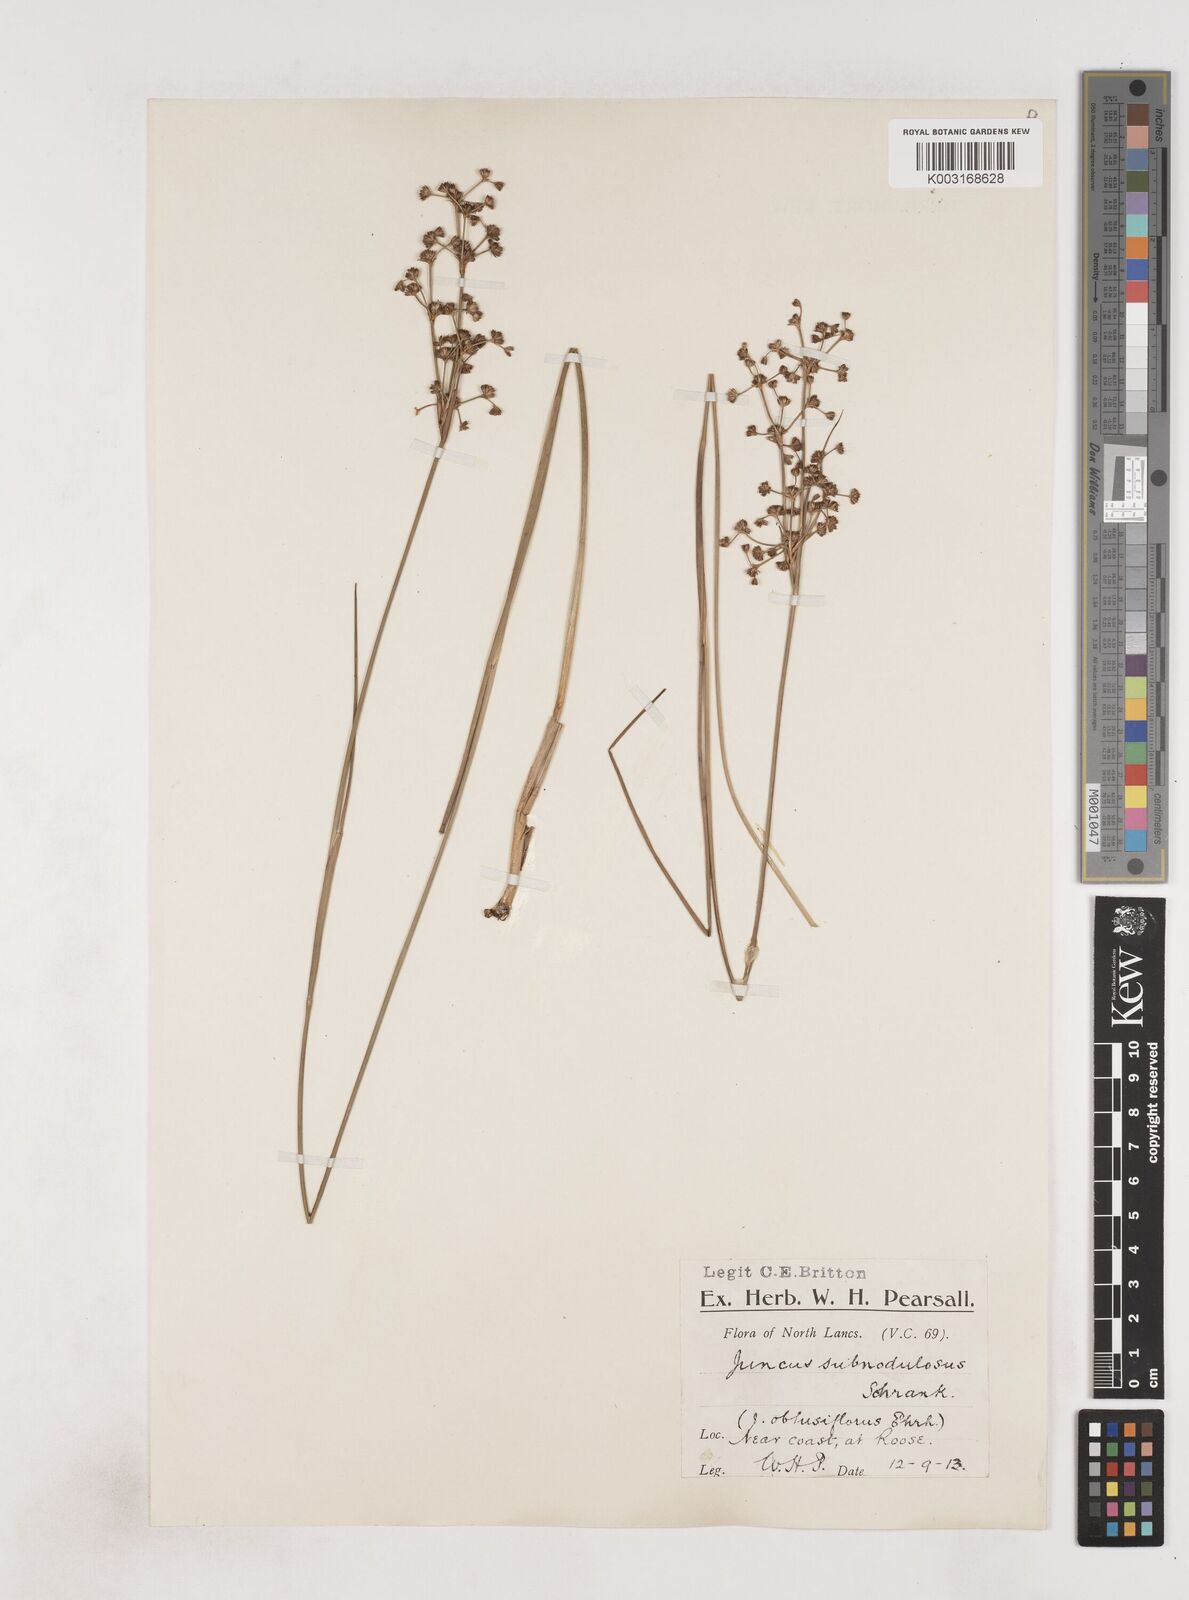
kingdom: Plantae
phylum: Tracheophyta
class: Liliopsida
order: Poales
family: Juncaceae
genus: Juncus
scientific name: Juncus subnodulosus
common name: Blunt-flowered rush
